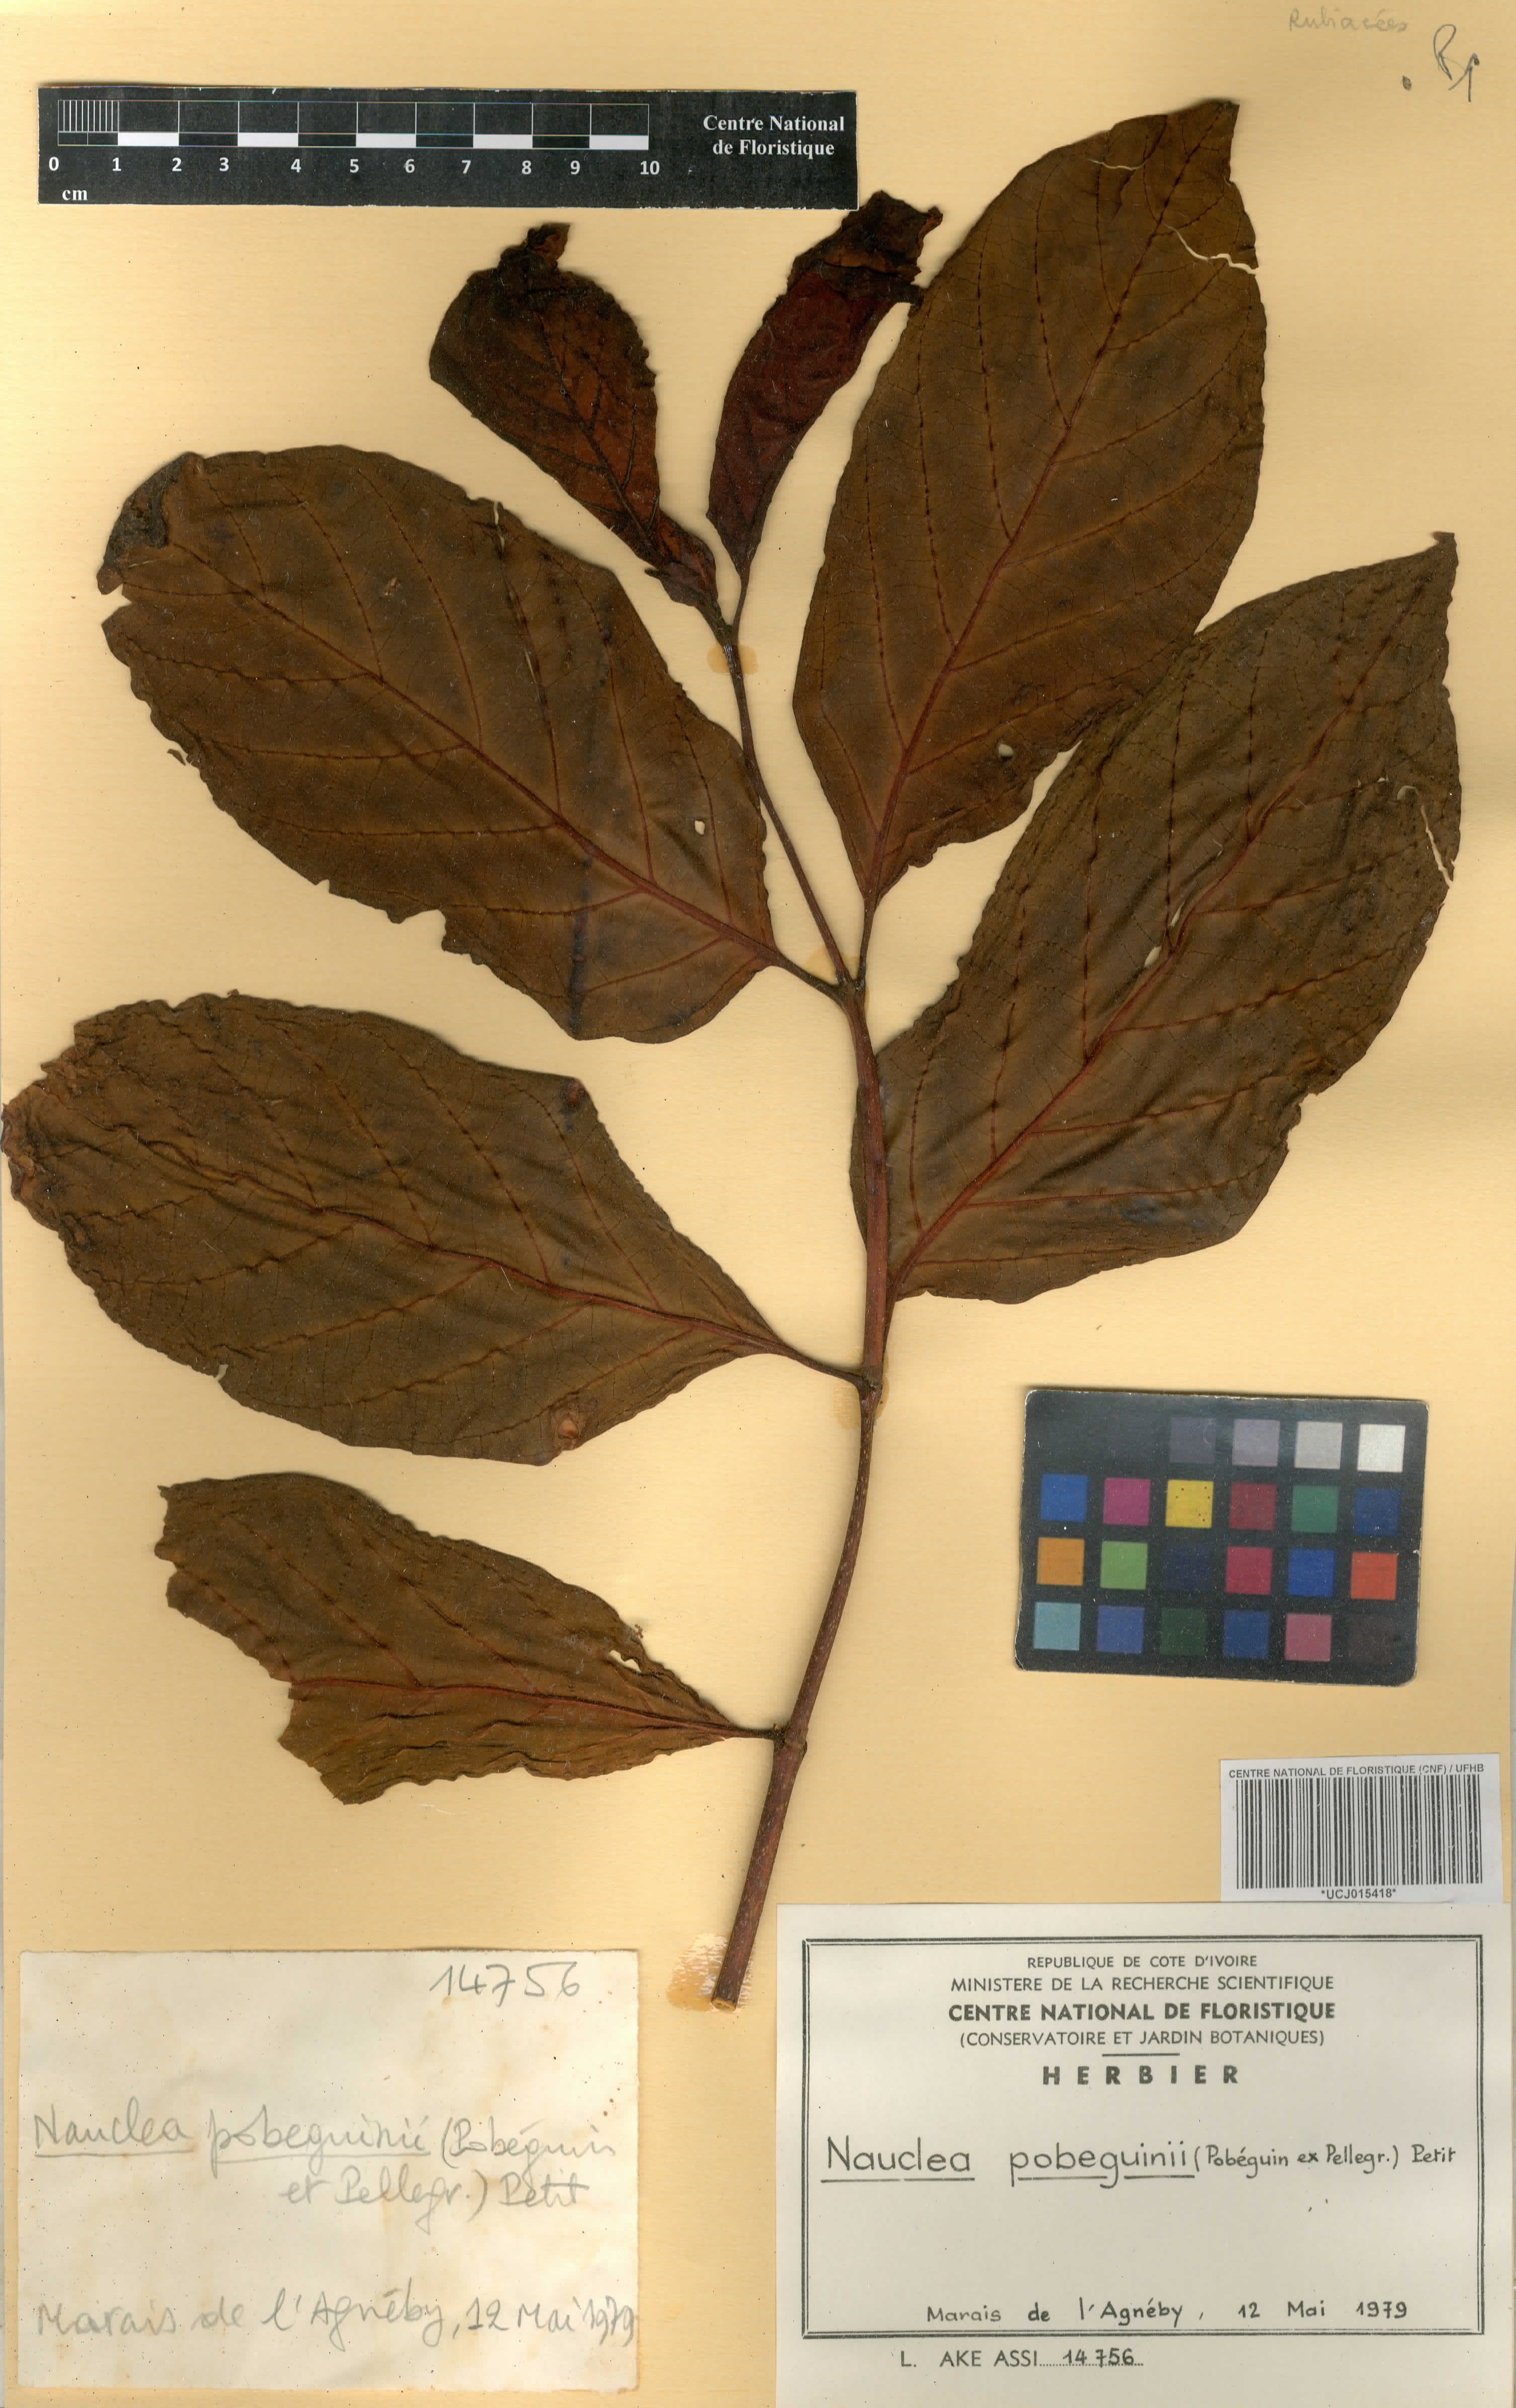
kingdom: Plantae
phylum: Tracheophyta
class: Magnoliopsida
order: Gentianales
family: Rubiaceae
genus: Nauclea
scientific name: Nauclea pobeguinii
